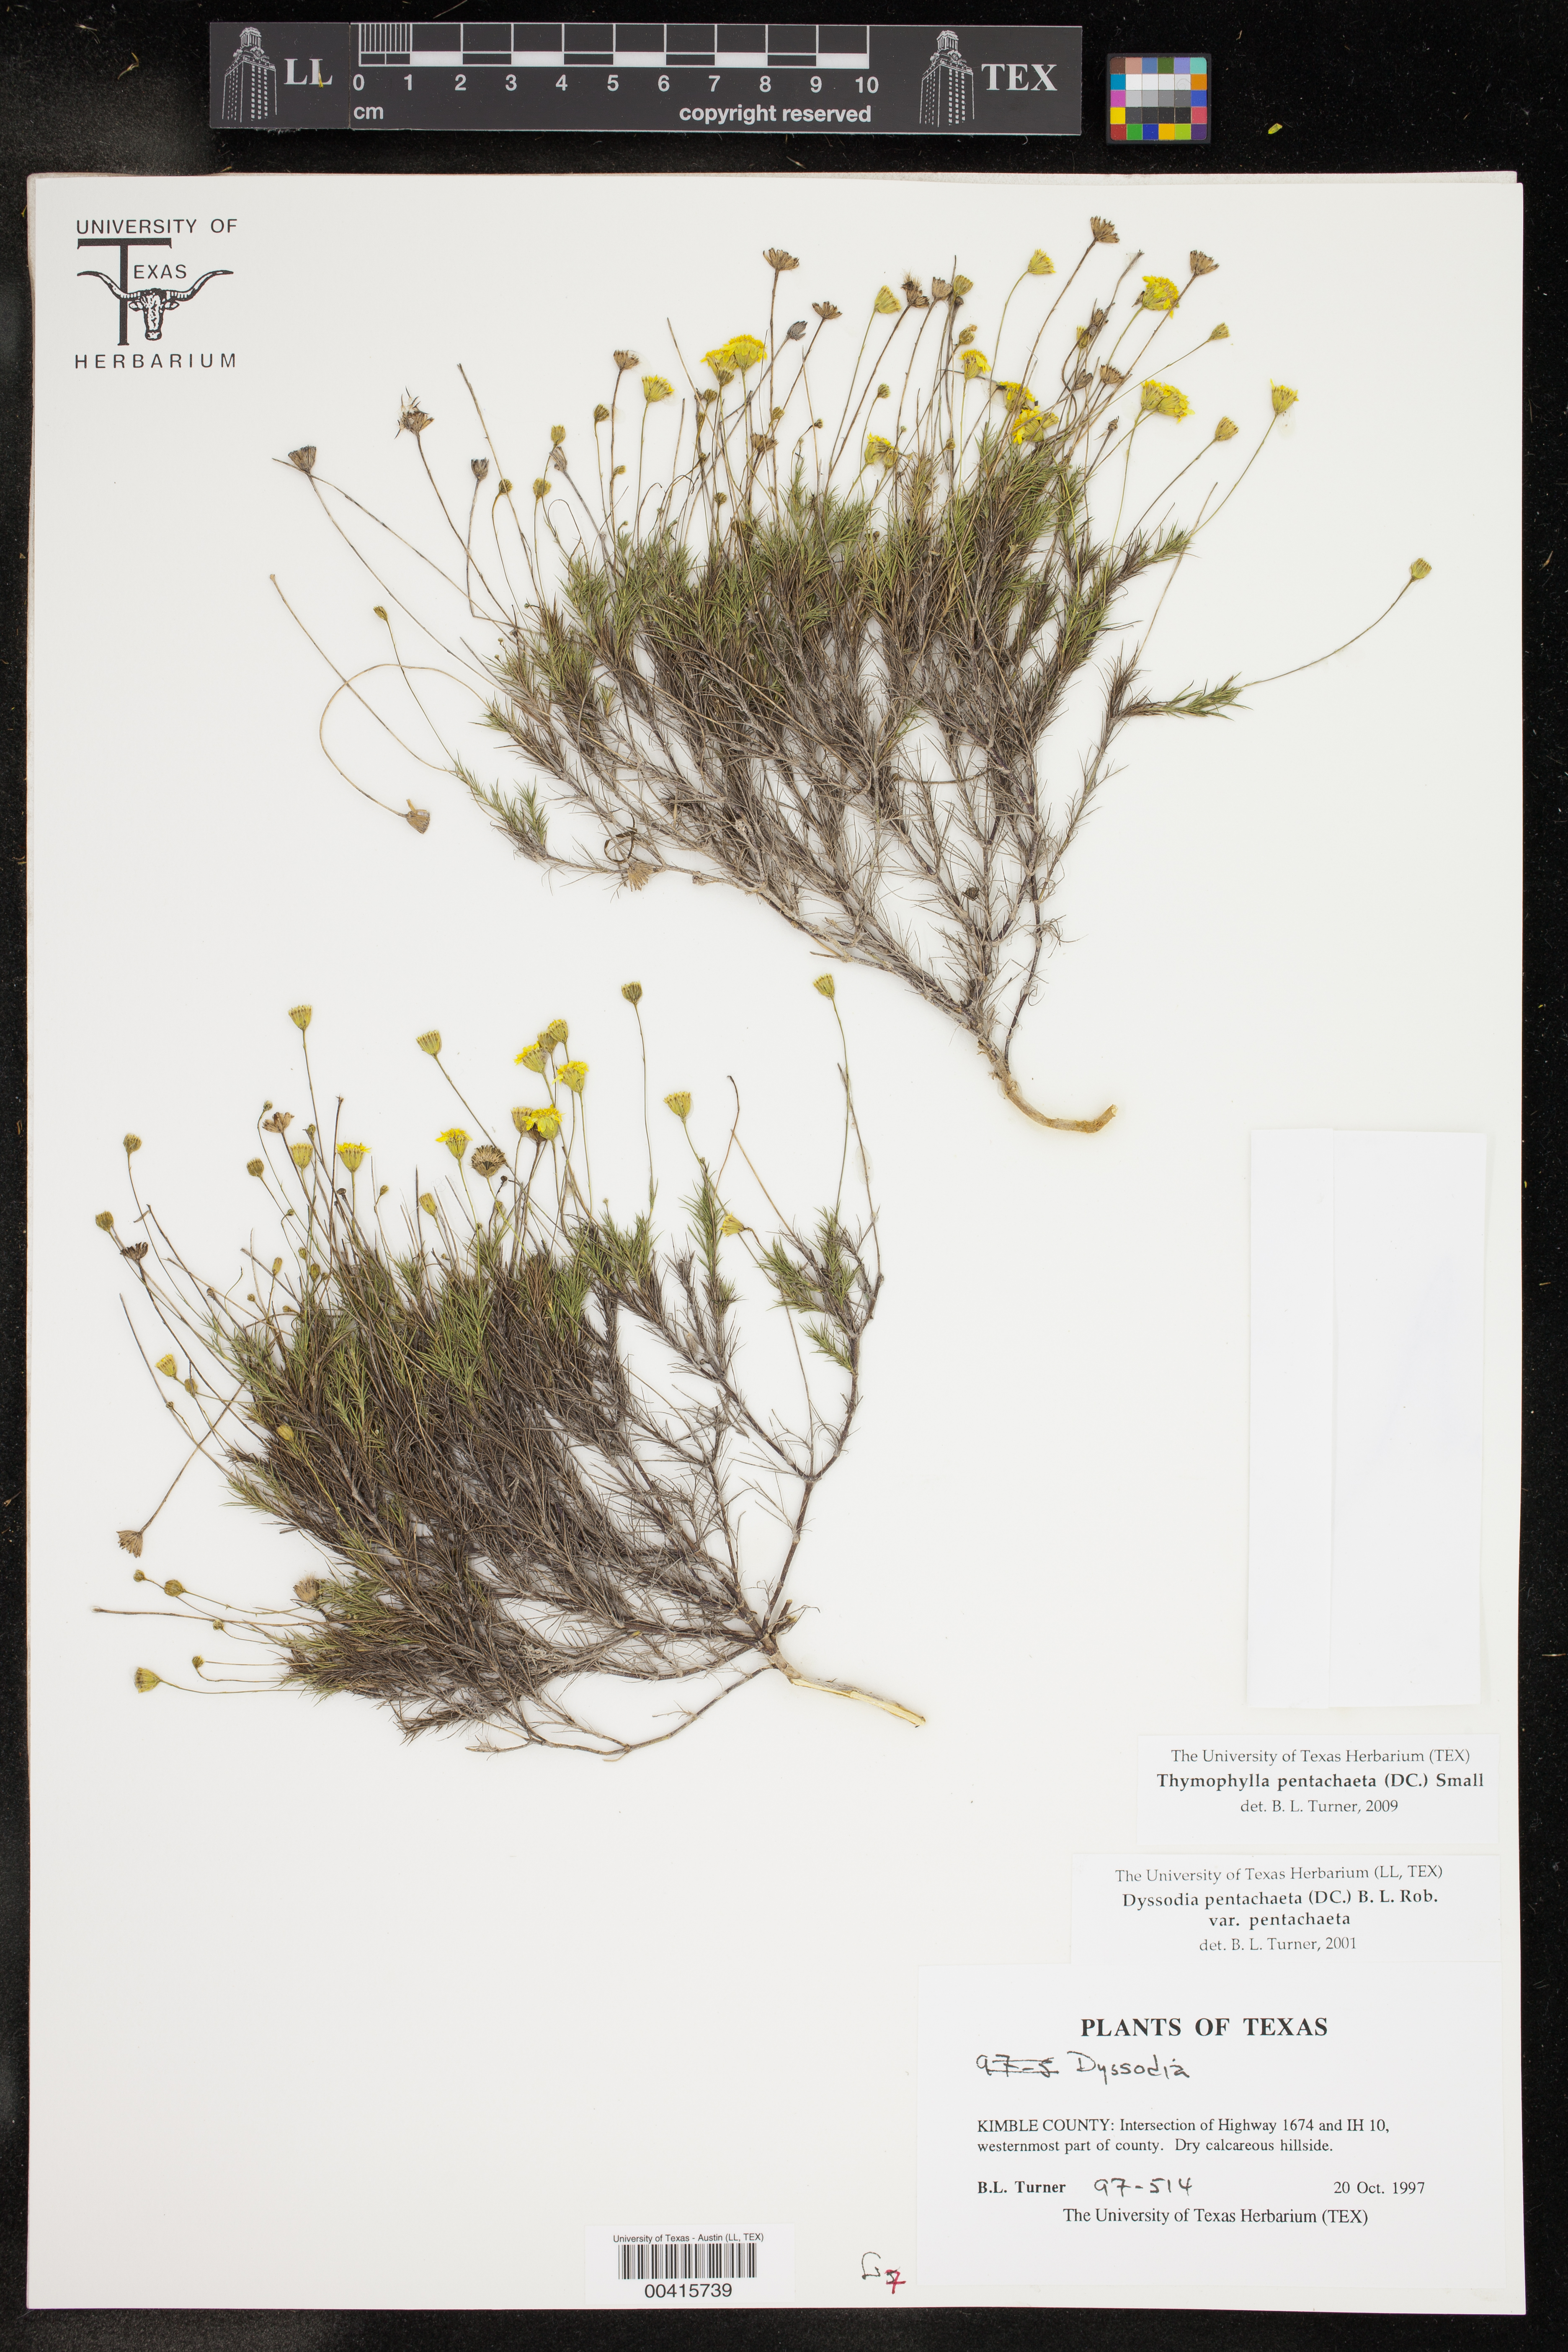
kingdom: Plantae
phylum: Tracheophyta
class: Magnoliopsida
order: Asterales
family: Asteraceae
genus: Thymophylla
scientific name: Thymophylla pentachaeta
